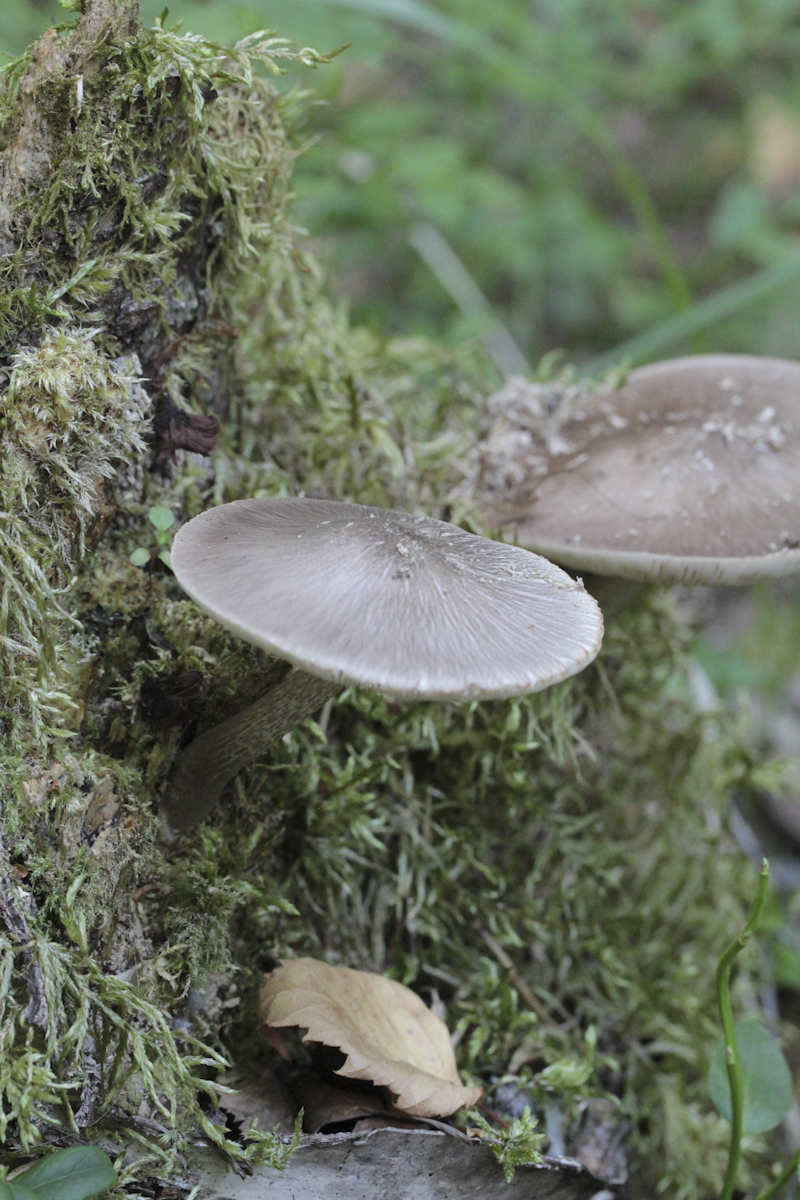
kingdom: Fungi
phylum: Basidiomycota
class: Agaricomycetes
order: Agaricales
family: Pluteaceae
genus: Pluteus
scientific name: Pluteus cervinus
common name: Deer shield
